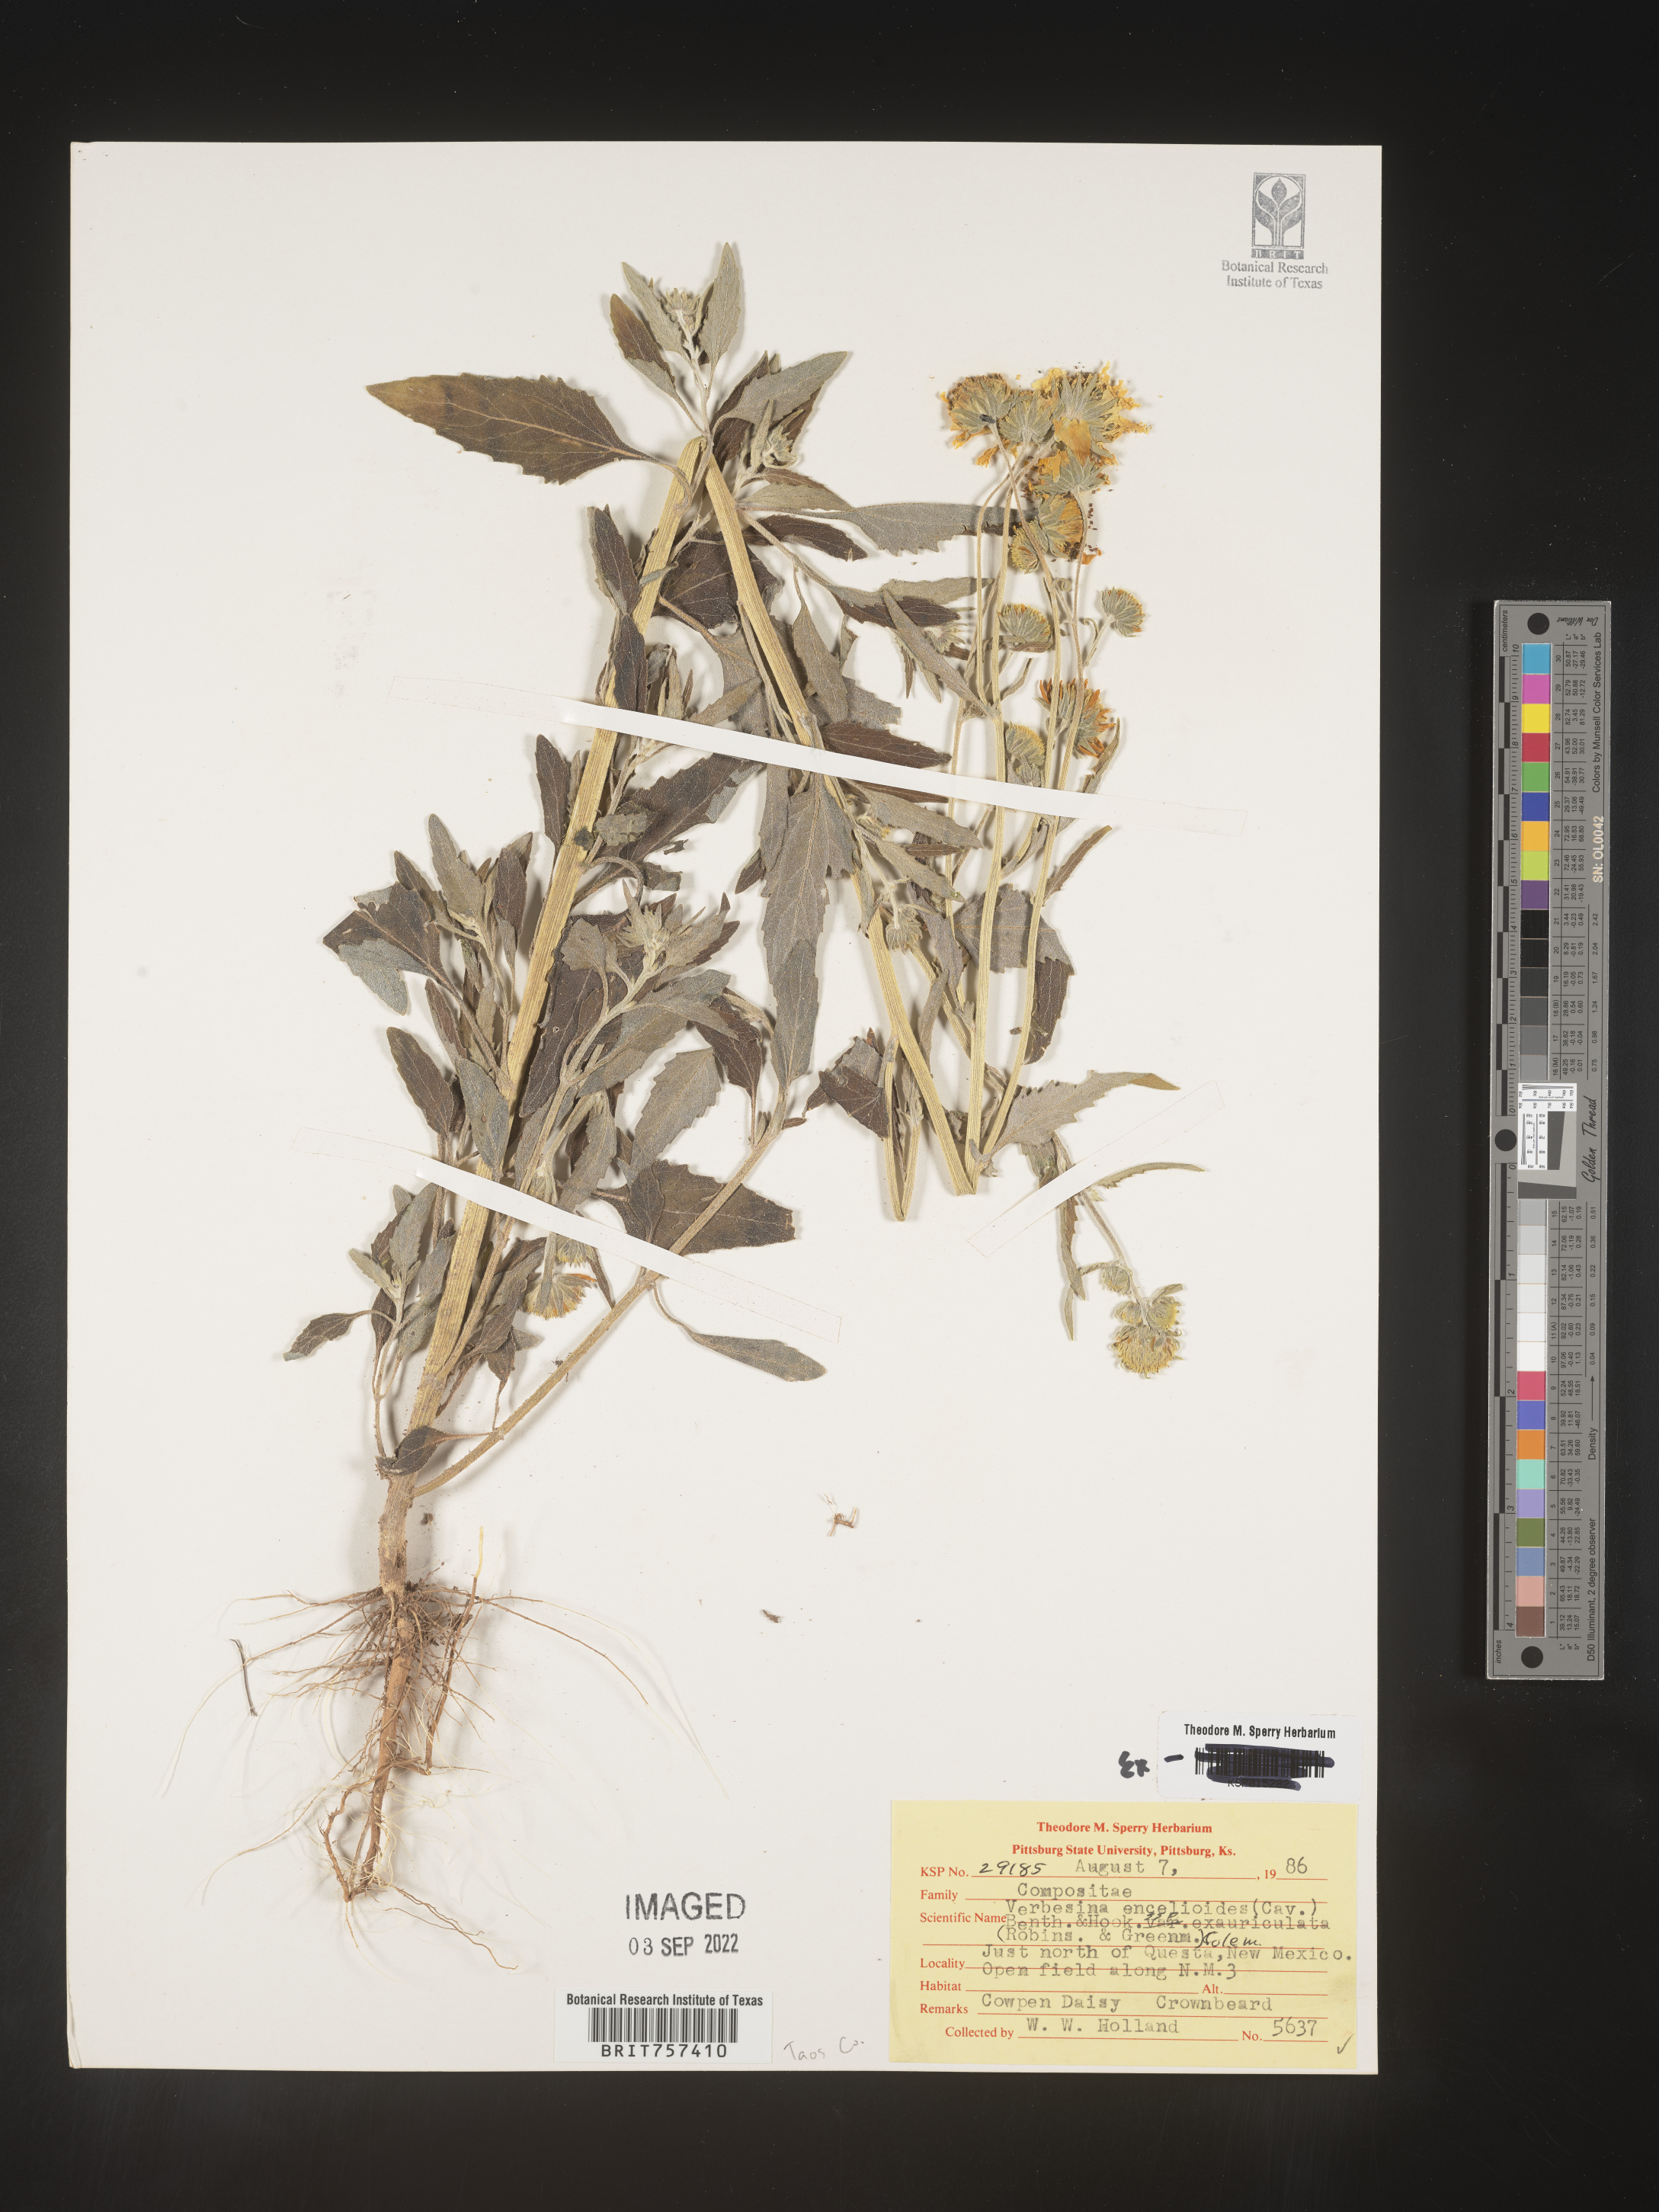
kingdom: Plantae
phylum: Tracheophyta
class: Magnoliopsida
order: Asterales
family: Asteraceae
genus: Verbesina
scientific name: Verbesina encelioides
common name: Golden crownbeard
